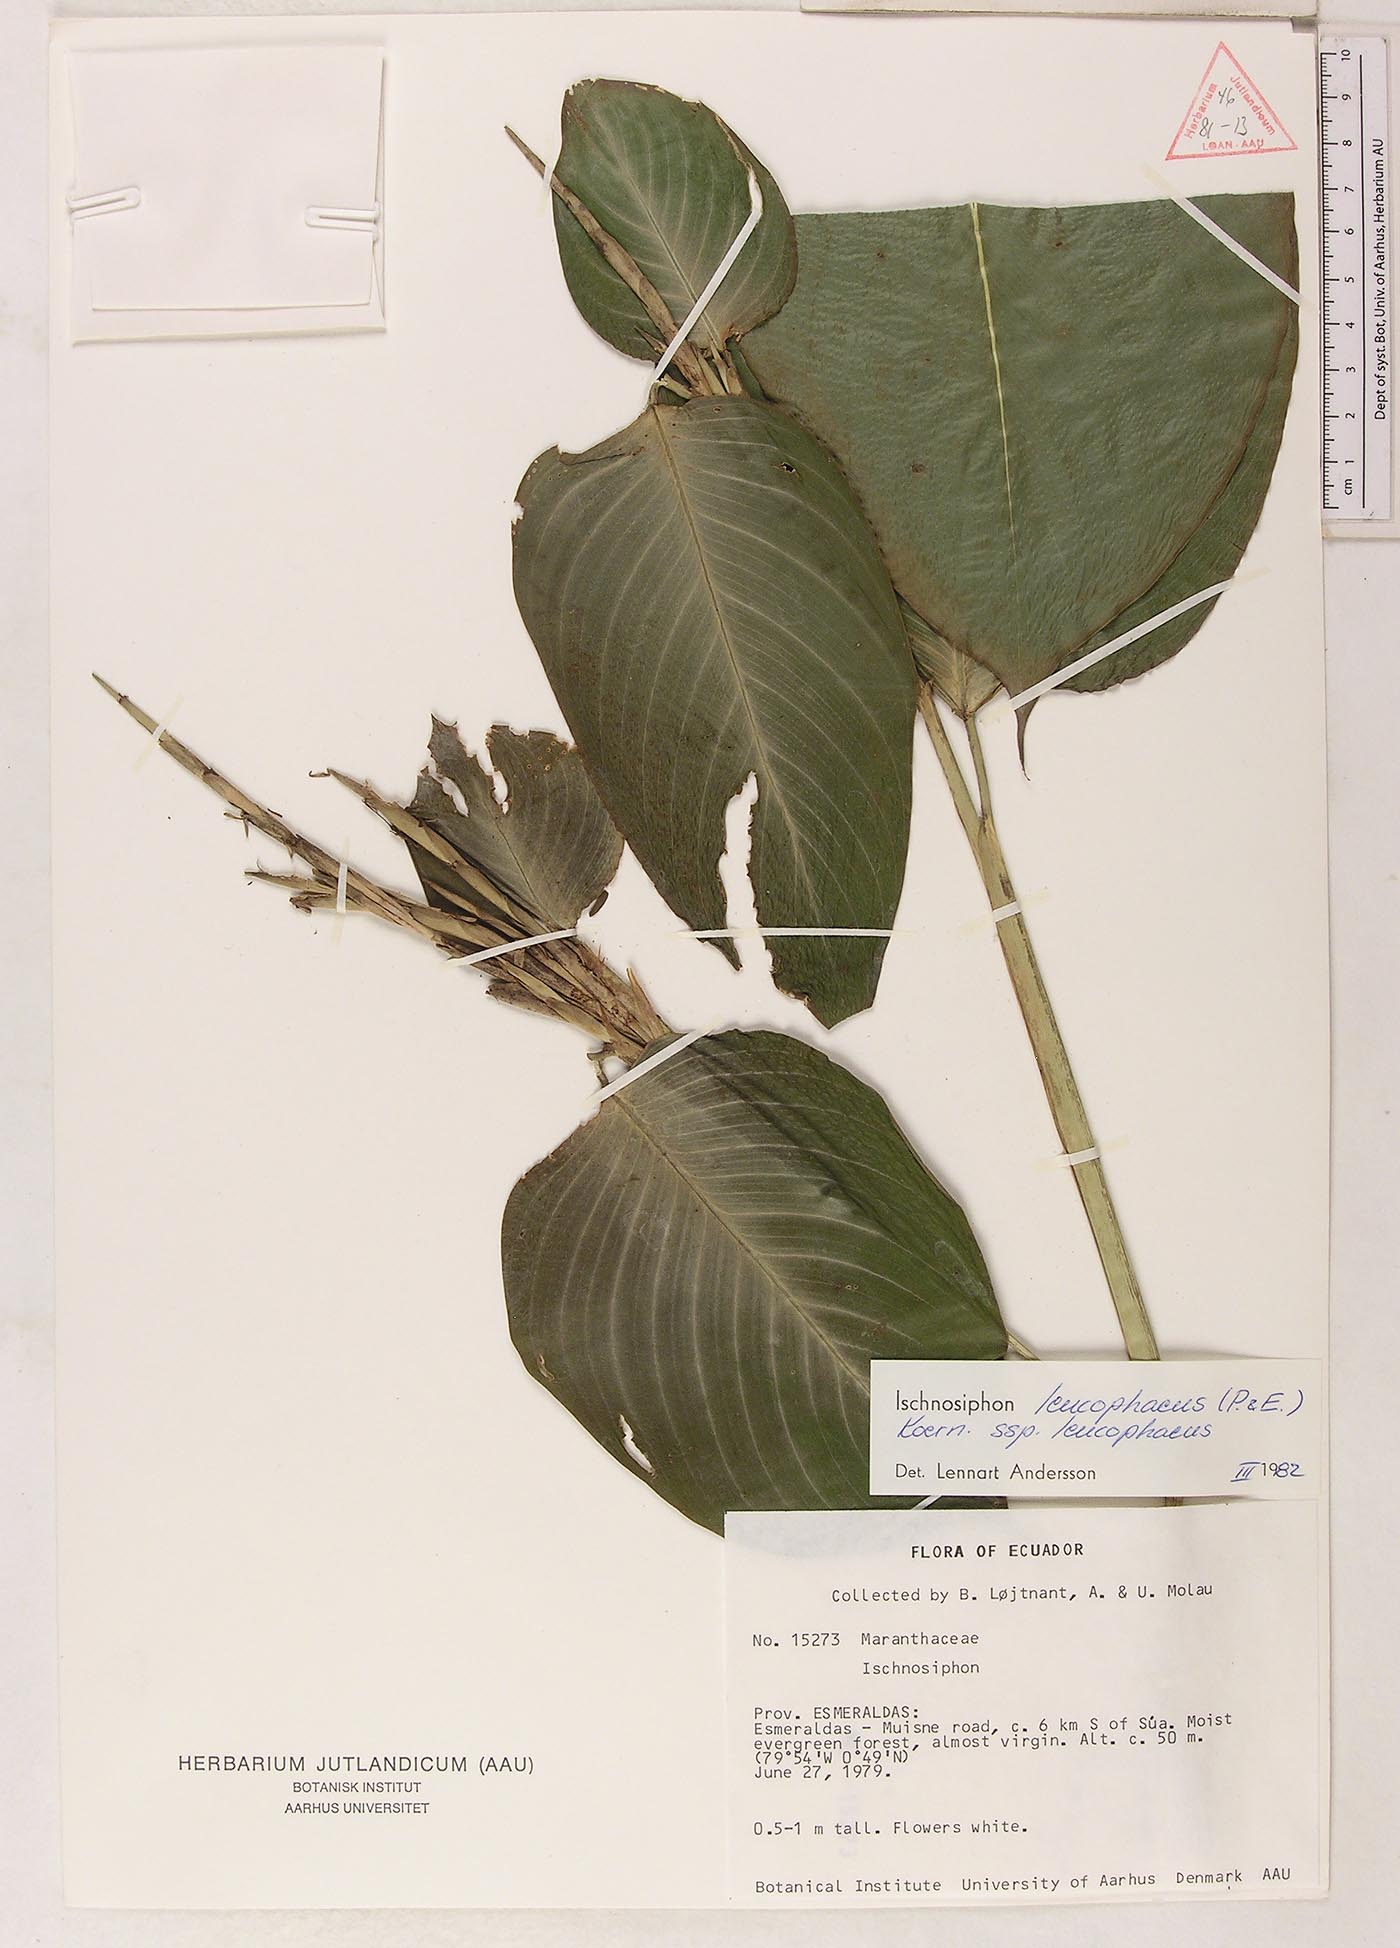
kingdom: Plantae
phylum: Tracheophyta
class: Liliopsida
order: Zingiberales
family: Marantaceae
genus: Ischnosiphon
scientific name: Ischnosiphon leucophaeus
